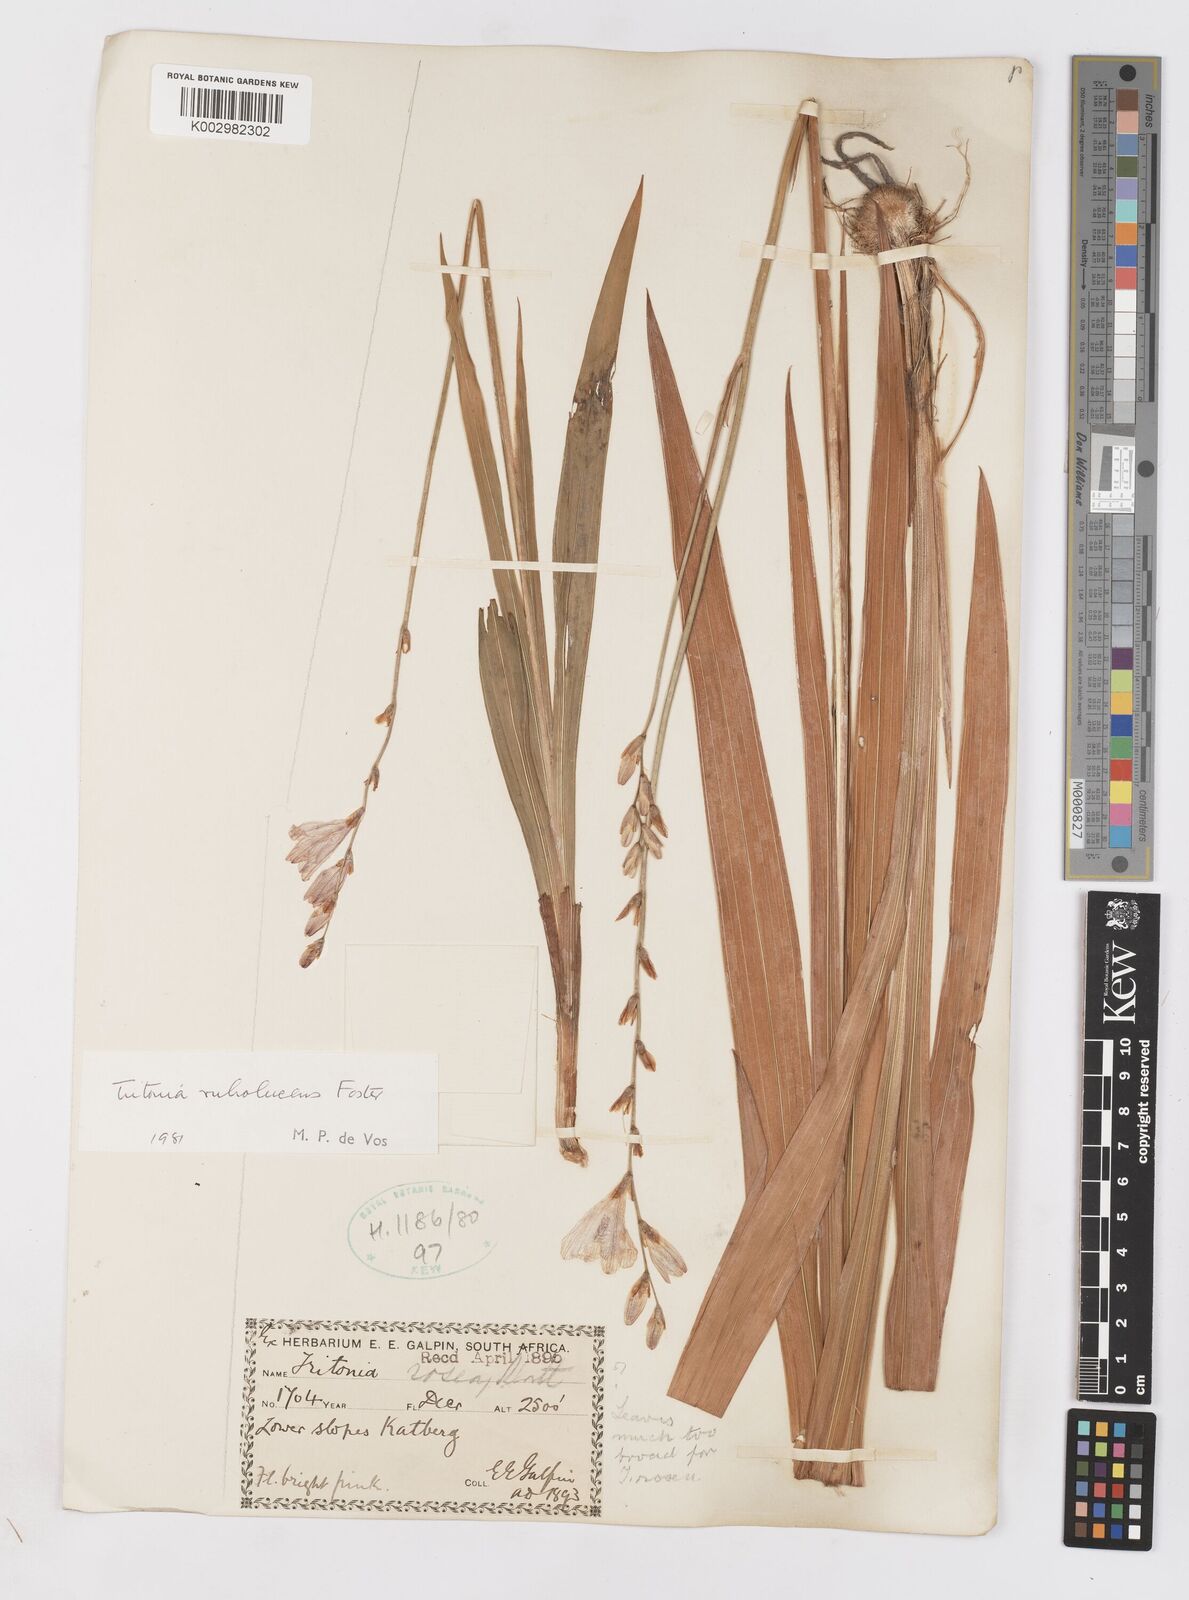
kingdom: Plantae
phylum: Tracheophyta
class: Liliopsida
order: Asparagales
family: Iridaceae
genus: Tritonia
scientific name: Tritonia disticha
